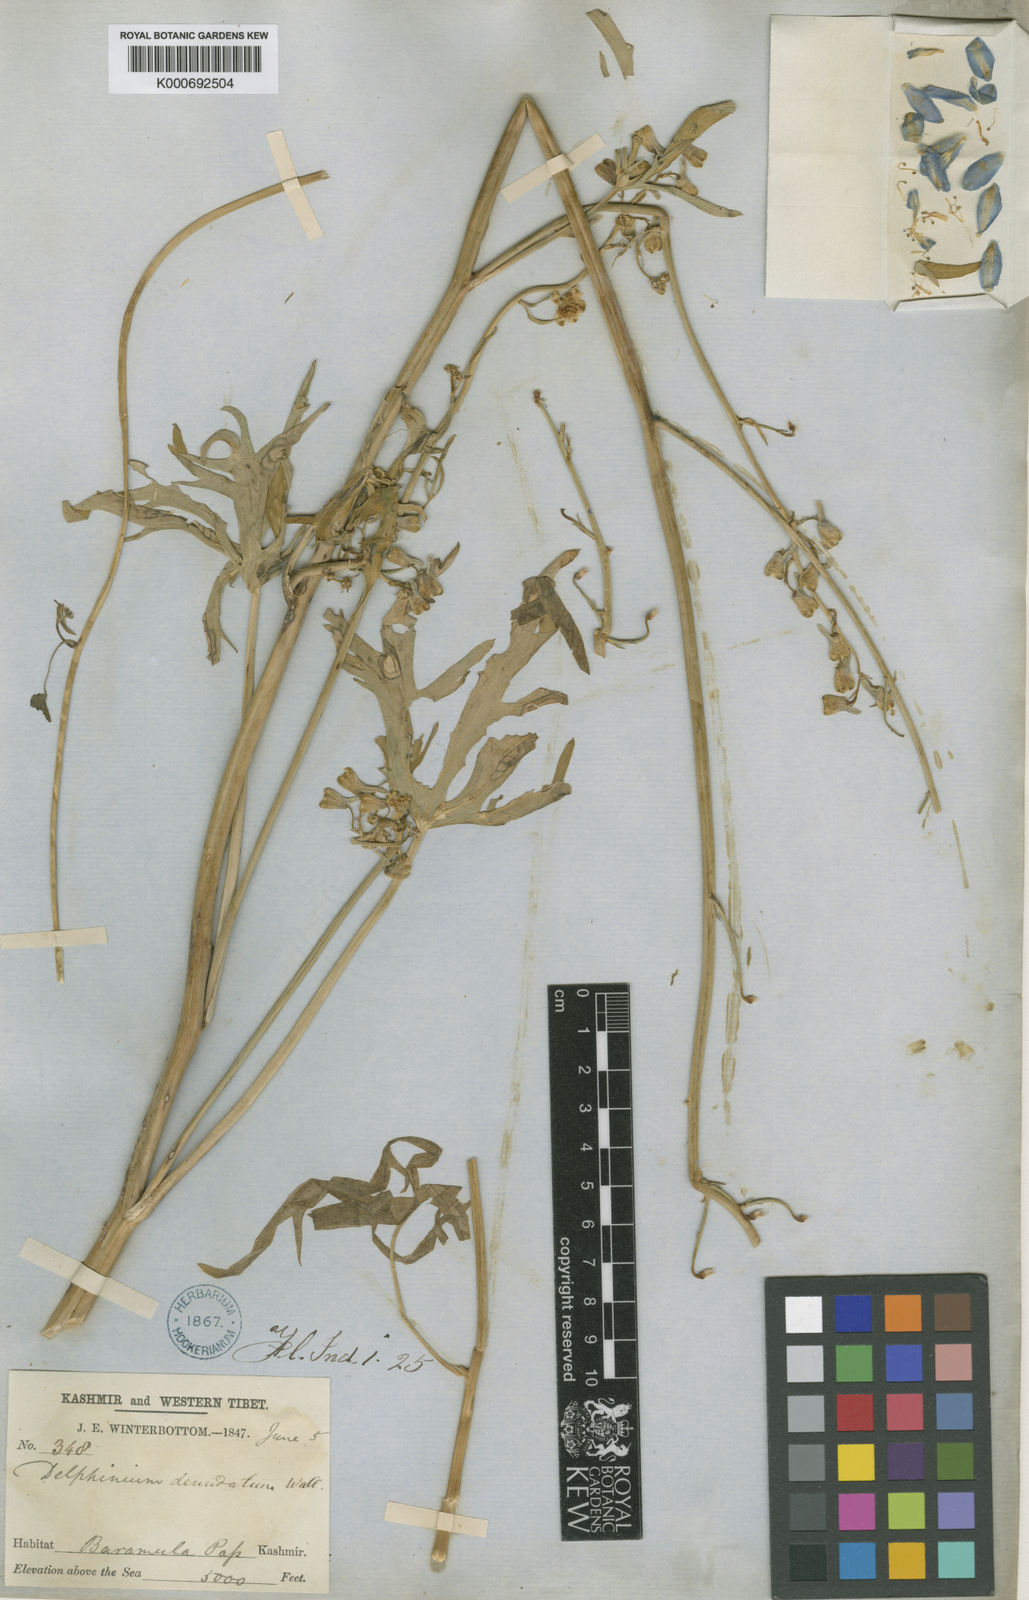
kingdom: Plantae
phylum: Tracheophyta
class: Magnoliopsida
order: Ranunculales
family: Ranunculaceae
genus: Delphinium
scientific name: Delphinium
